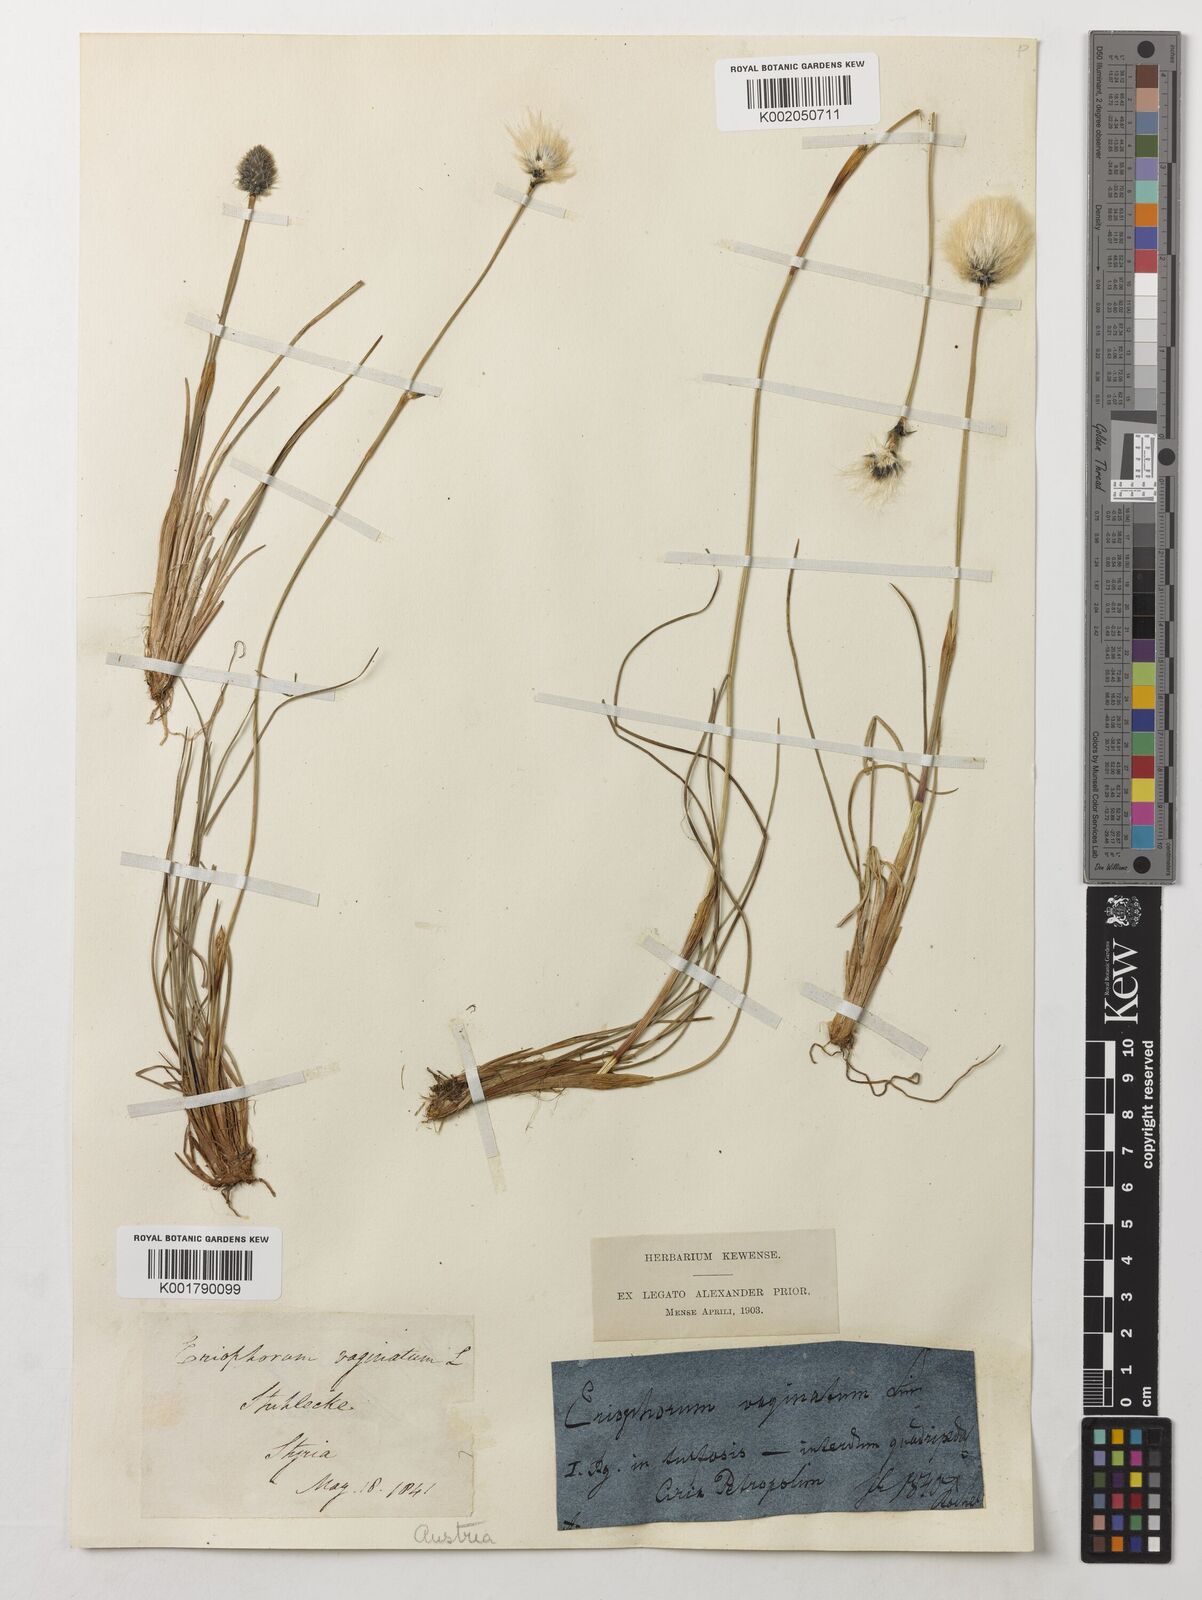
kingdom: Plantae
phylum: Tracheophyta
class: Liliopsida
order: Poales
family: Cyperaceae
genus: Eriophorum
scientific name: Eriophorum vaginatum
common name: Hare's-tail cottongrass
